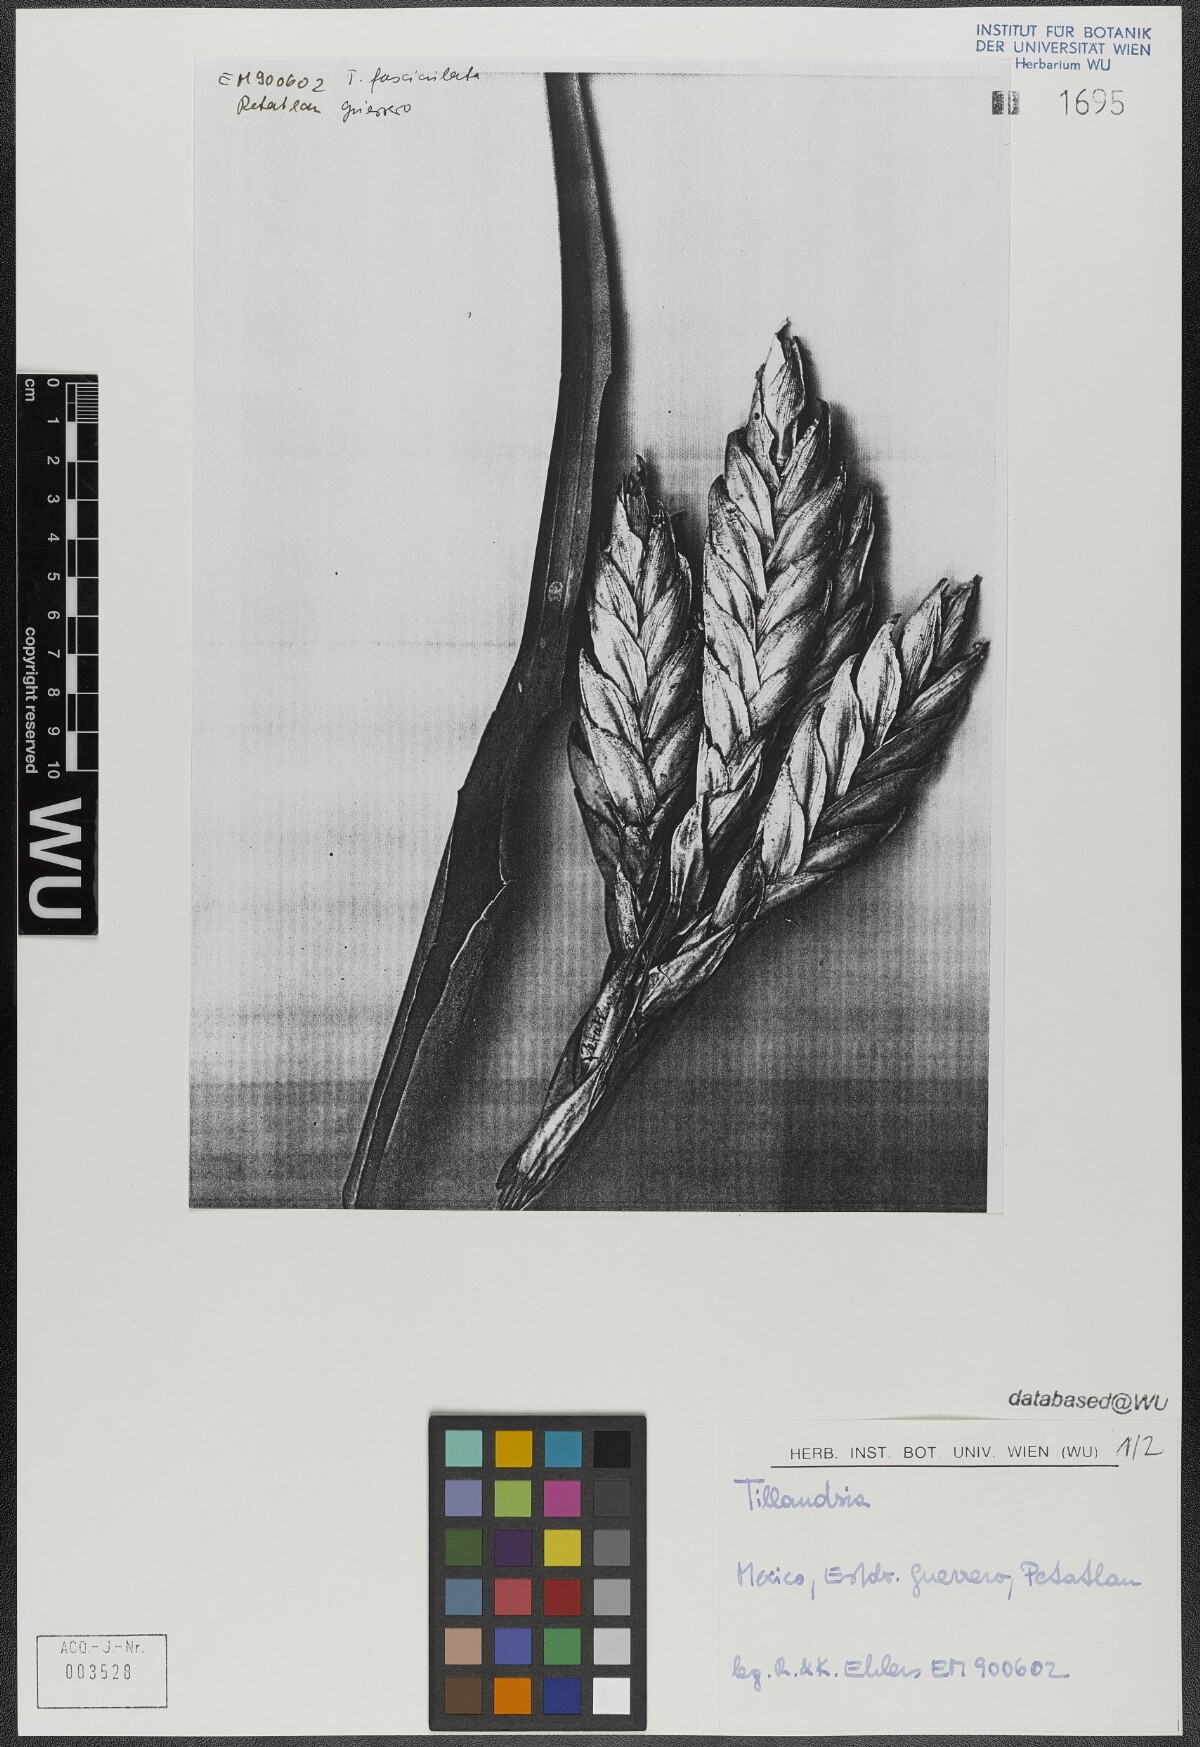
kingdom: Plantae
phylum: Tracheophyta
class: Liliopsida
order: Poales
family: Bromeliaceae
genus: Tillandsia
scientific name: Tillandsia fasciculata
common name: Giant airplant
